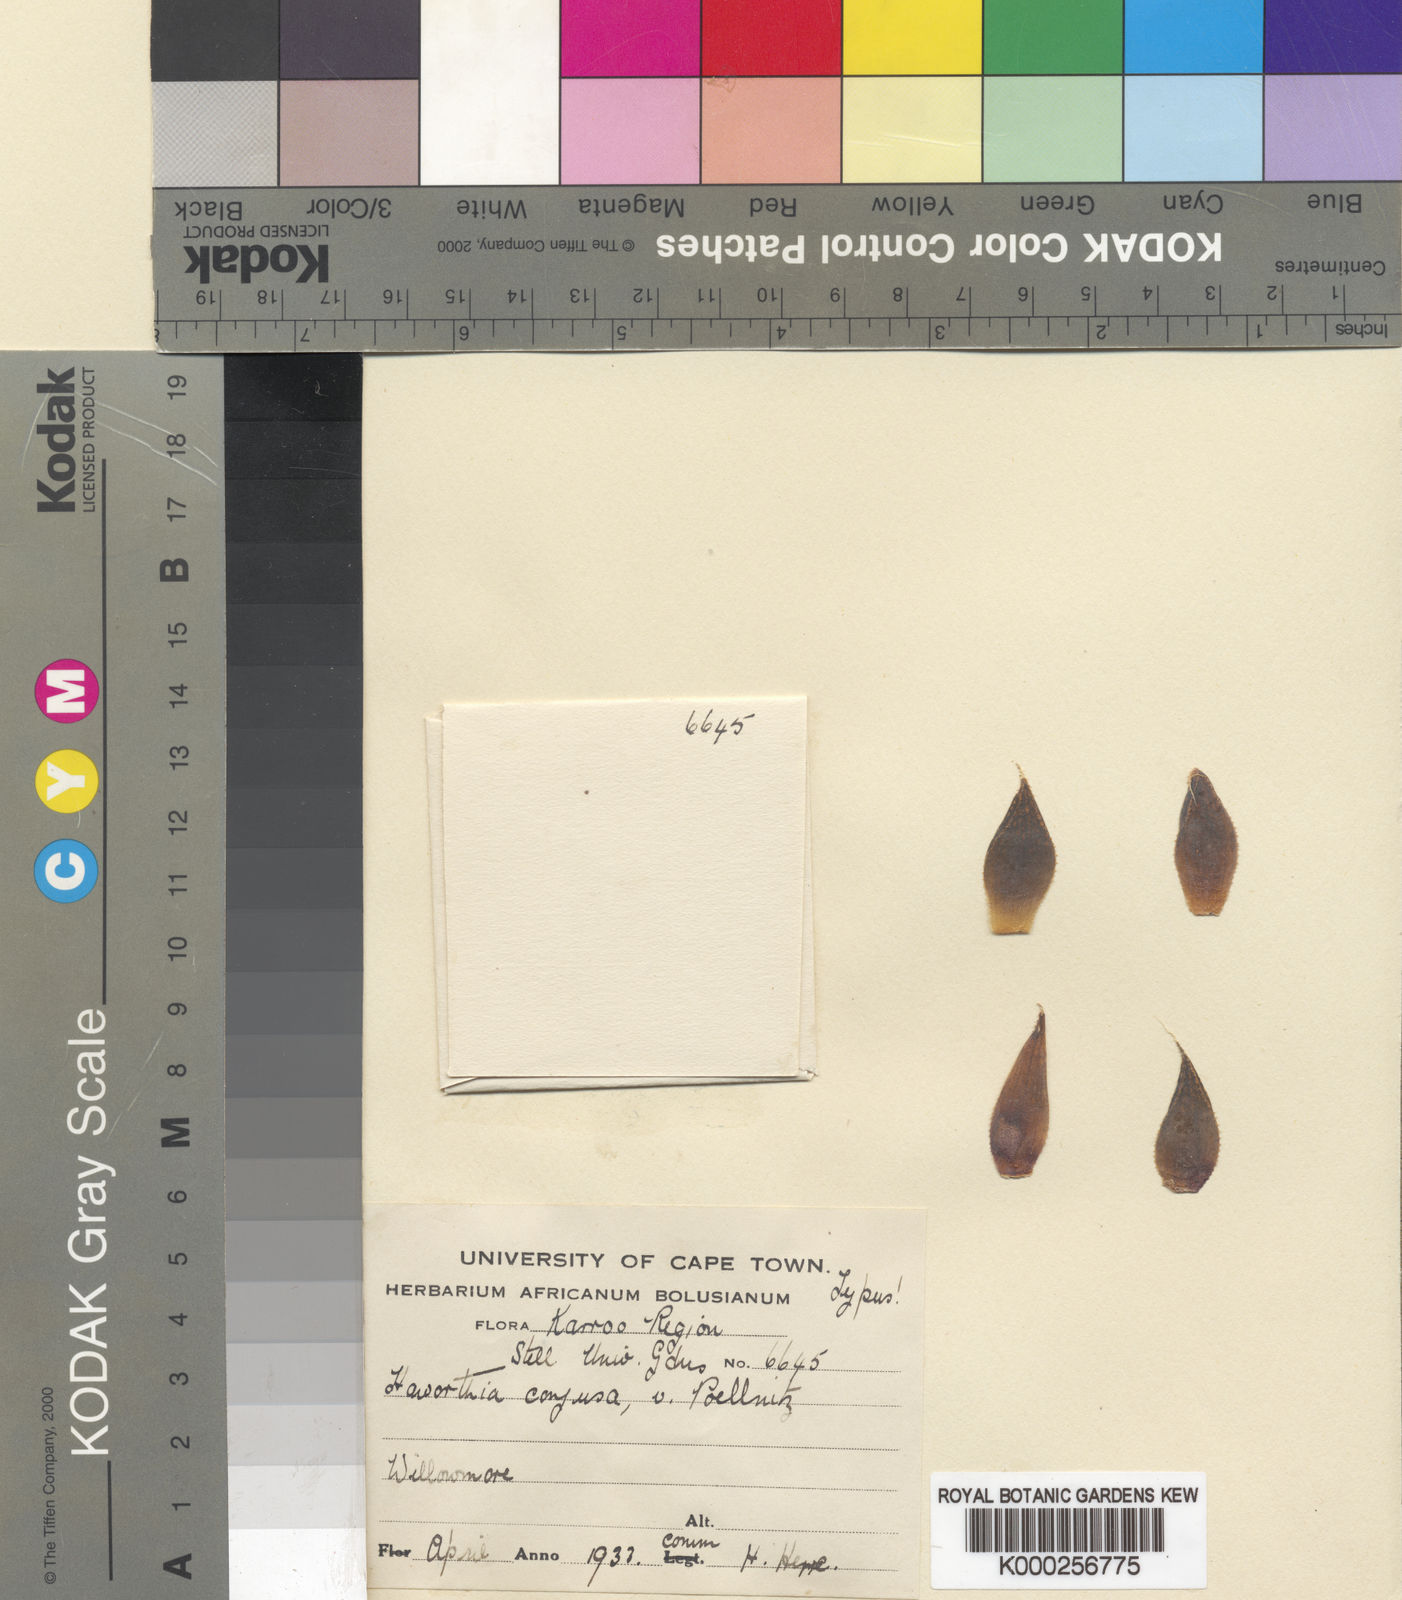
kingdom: Plantae
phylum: Tracheophyta
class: Liliopsida
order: Asparagales
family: Asphodelaceae
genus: Haworthia
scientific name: Haworthia cooperi
